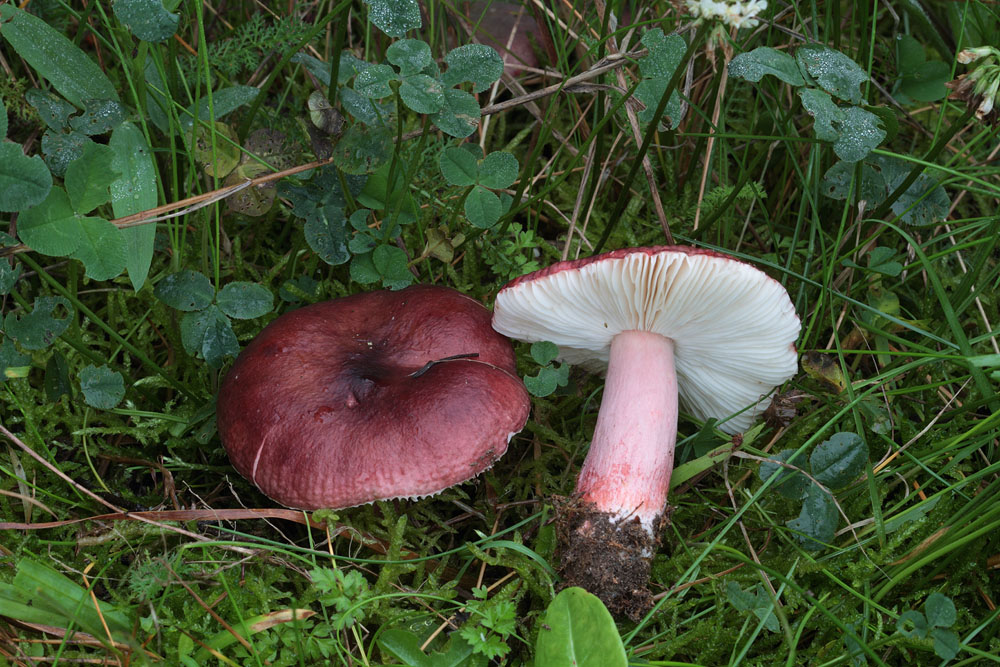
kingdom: Fungi
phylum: Basidiomycota
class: Agaricomycetes
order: Russulales
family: Russulaceae
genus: Russula
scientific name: Russula queletii
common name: Quélets skørhat
